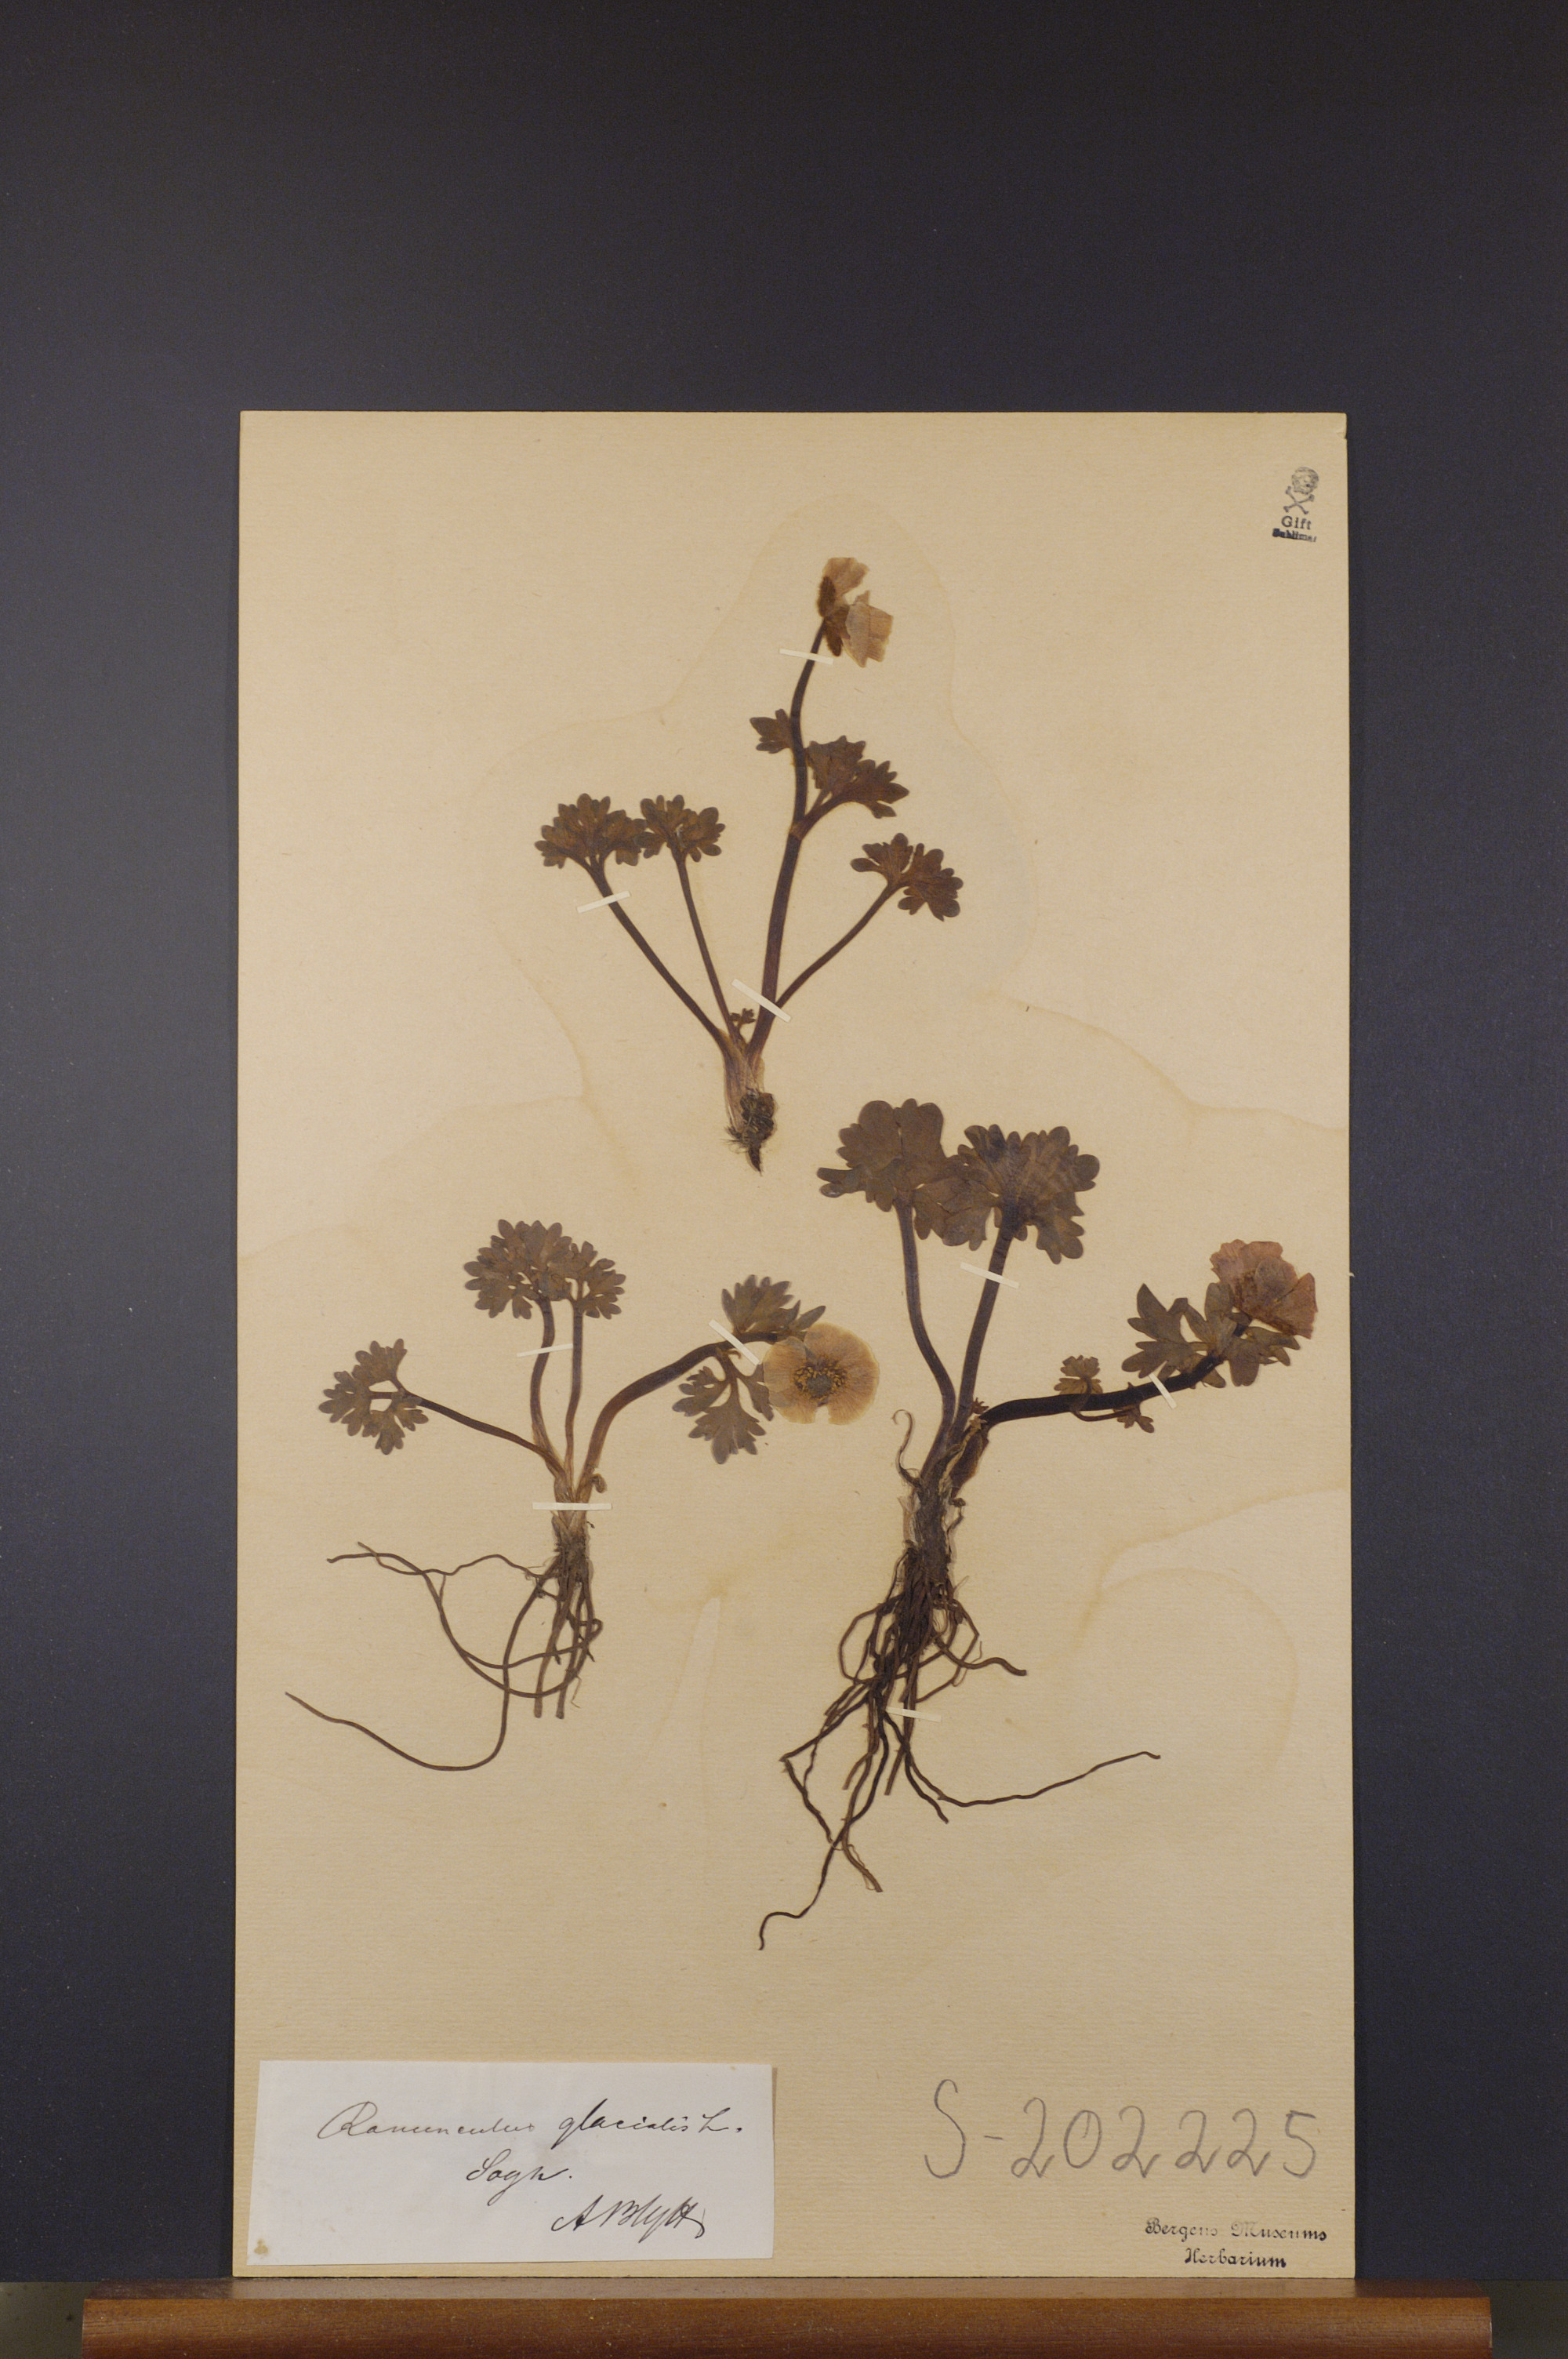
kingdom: Plantae
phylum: Tracheophyta
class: Magnoliopsida
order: Ranunculales
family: Ranunculaceae
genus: Ranunculus
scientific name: Ranunculus glacialis
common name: Glacier buttercup
